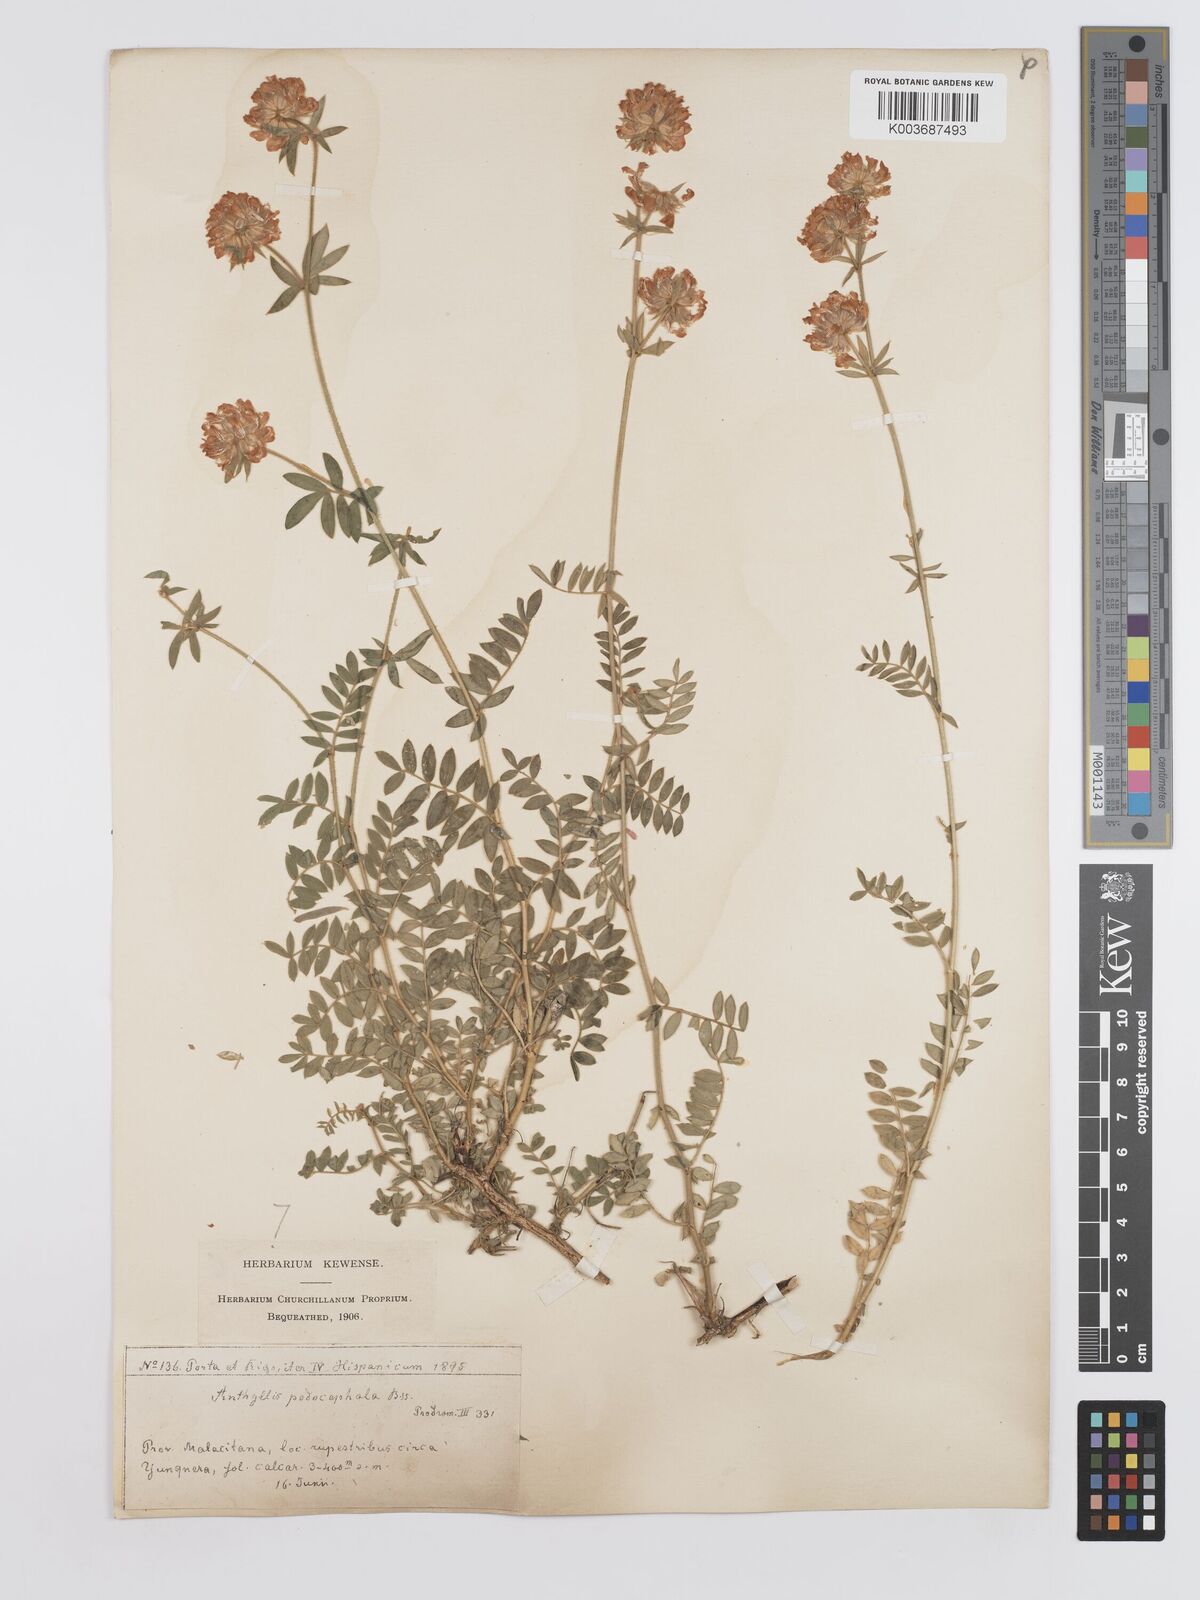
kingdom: Plantae
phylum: Tracheophyta
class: Magnoliopsida
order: Fabales
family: Fabaceae
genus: Anthyllis
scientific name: Anthyllis polycephala
